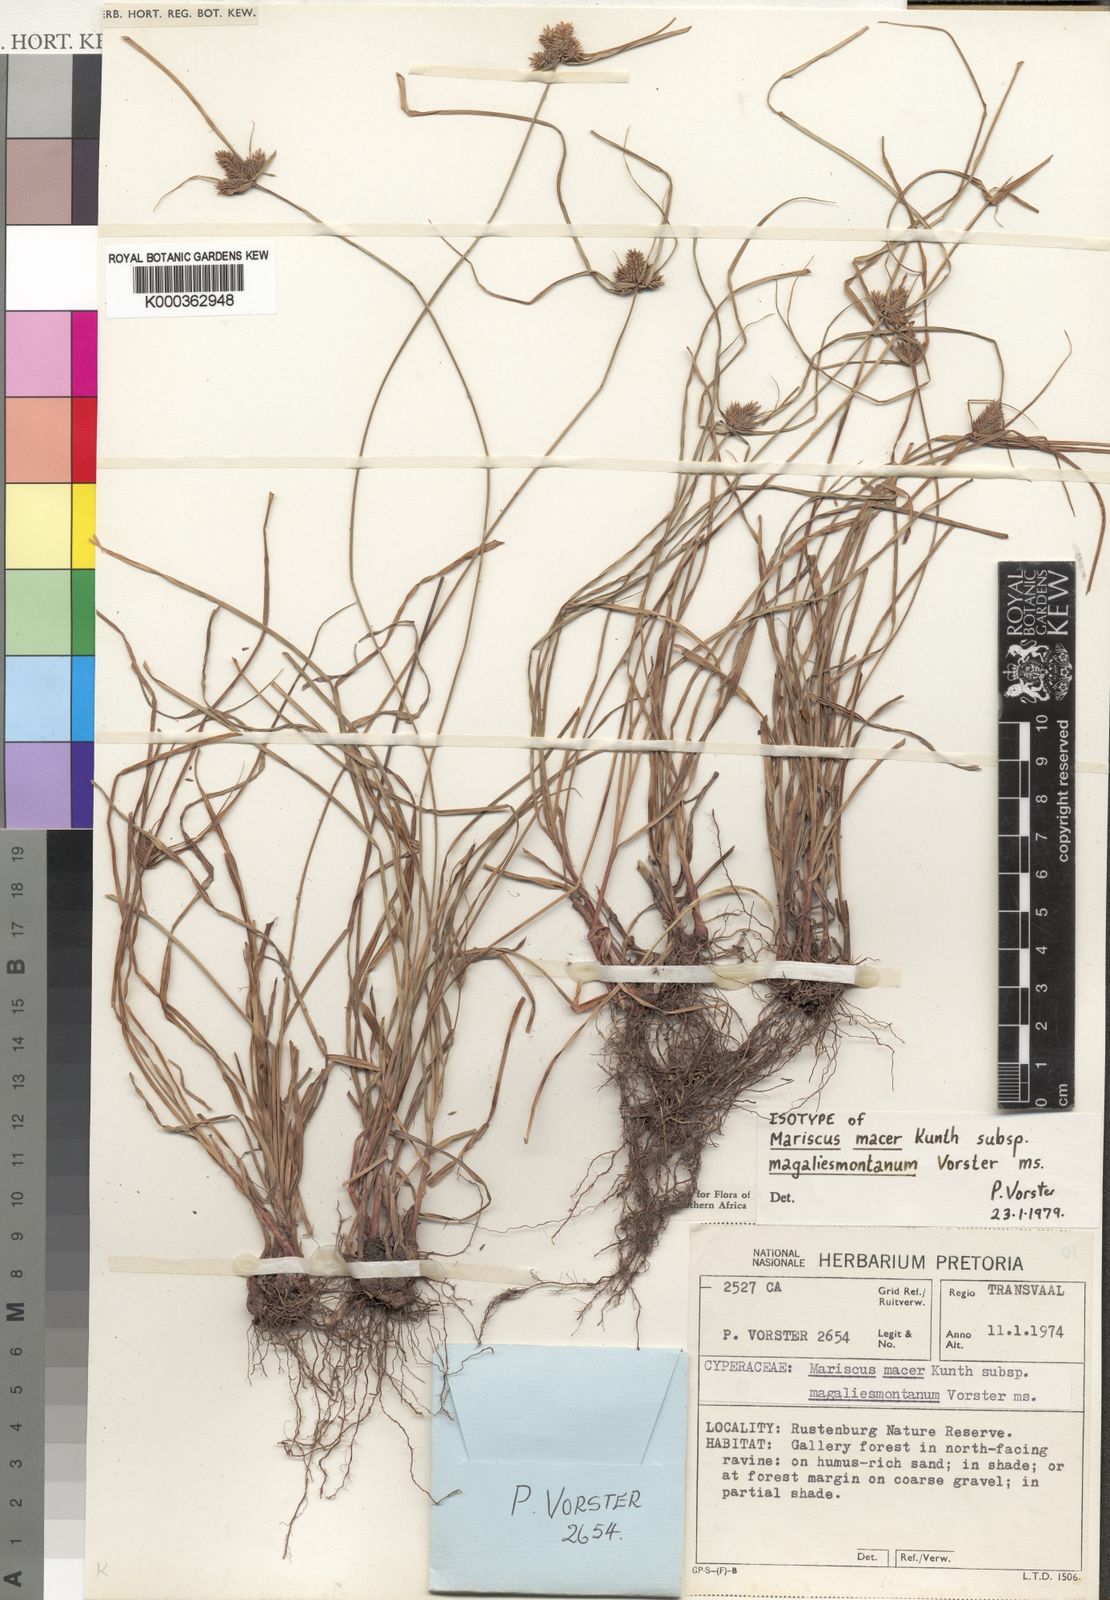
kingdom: Plantae
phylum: Tracheophyta
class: Liliopsida
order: Poales
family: Cyperaceae
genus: Cyperus
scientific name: Cyperus
